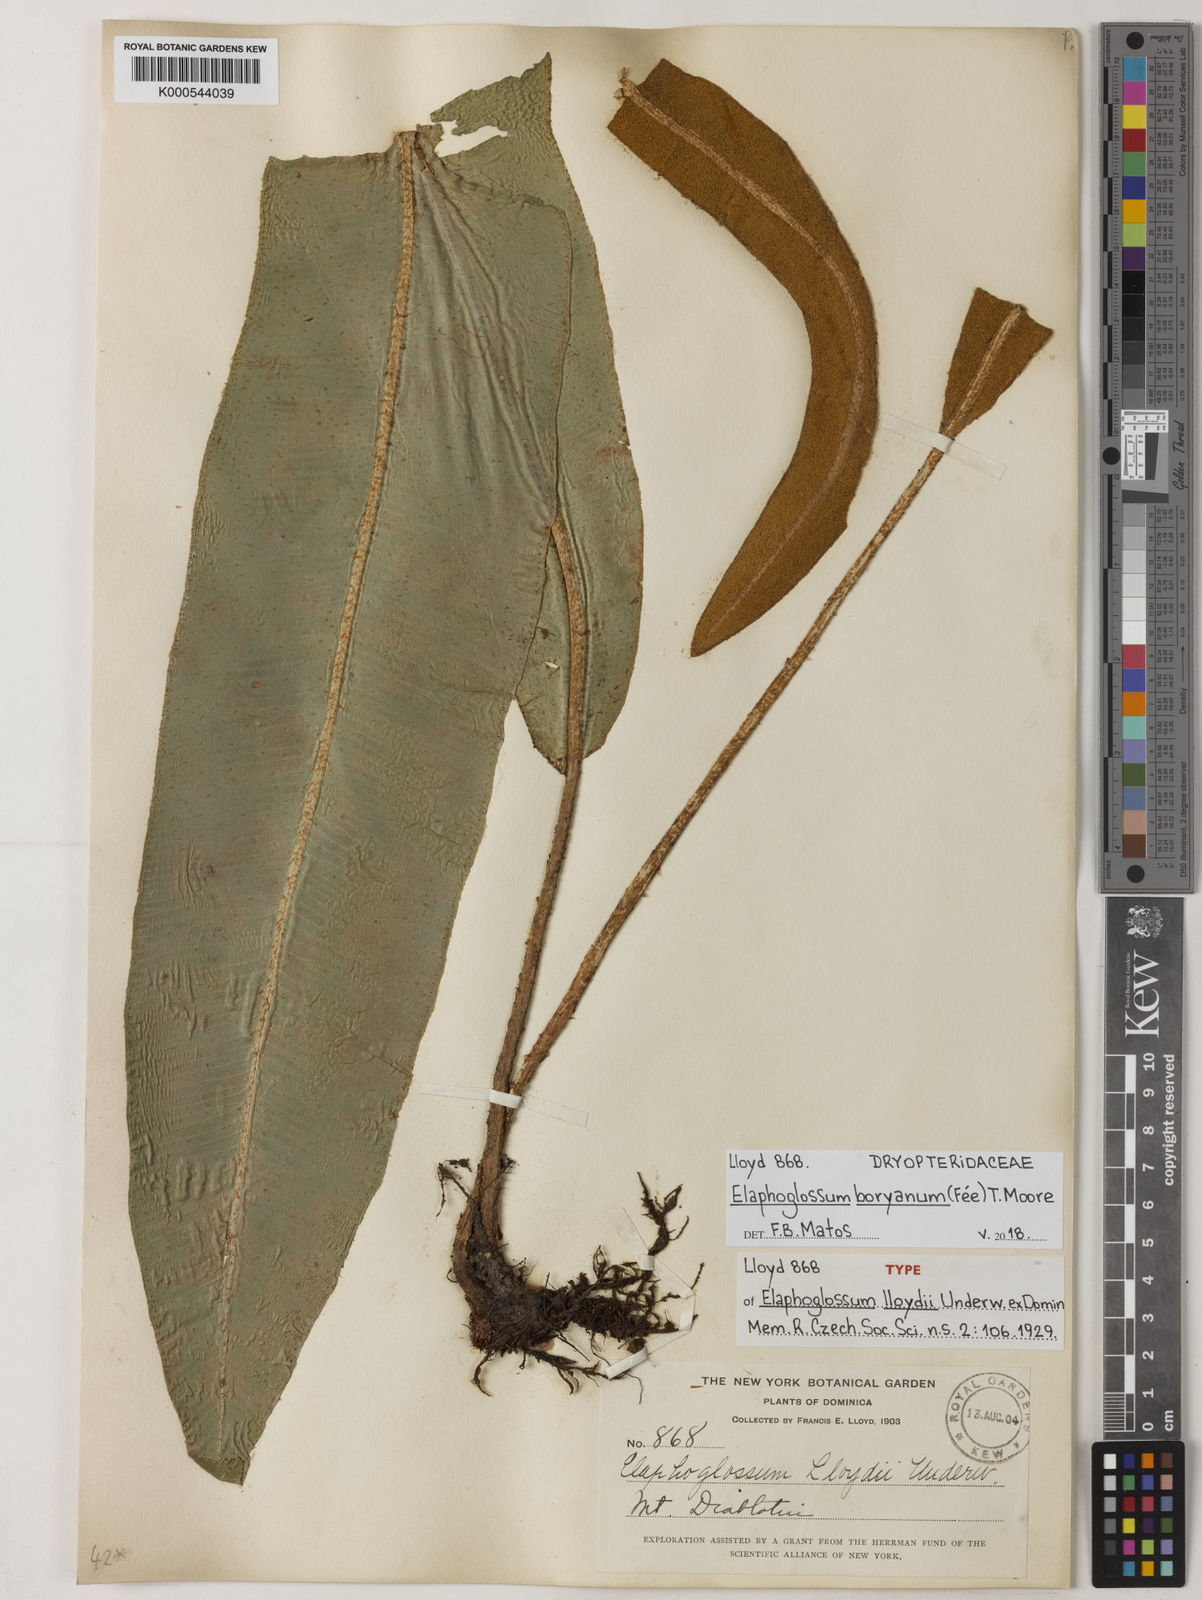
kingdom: Plantae
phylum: Tracheophyta
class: Polypodiopsida
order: Polypodiales
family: Dryopteridaceae
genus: Elaphoglossum
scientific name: Elaphoglossum
